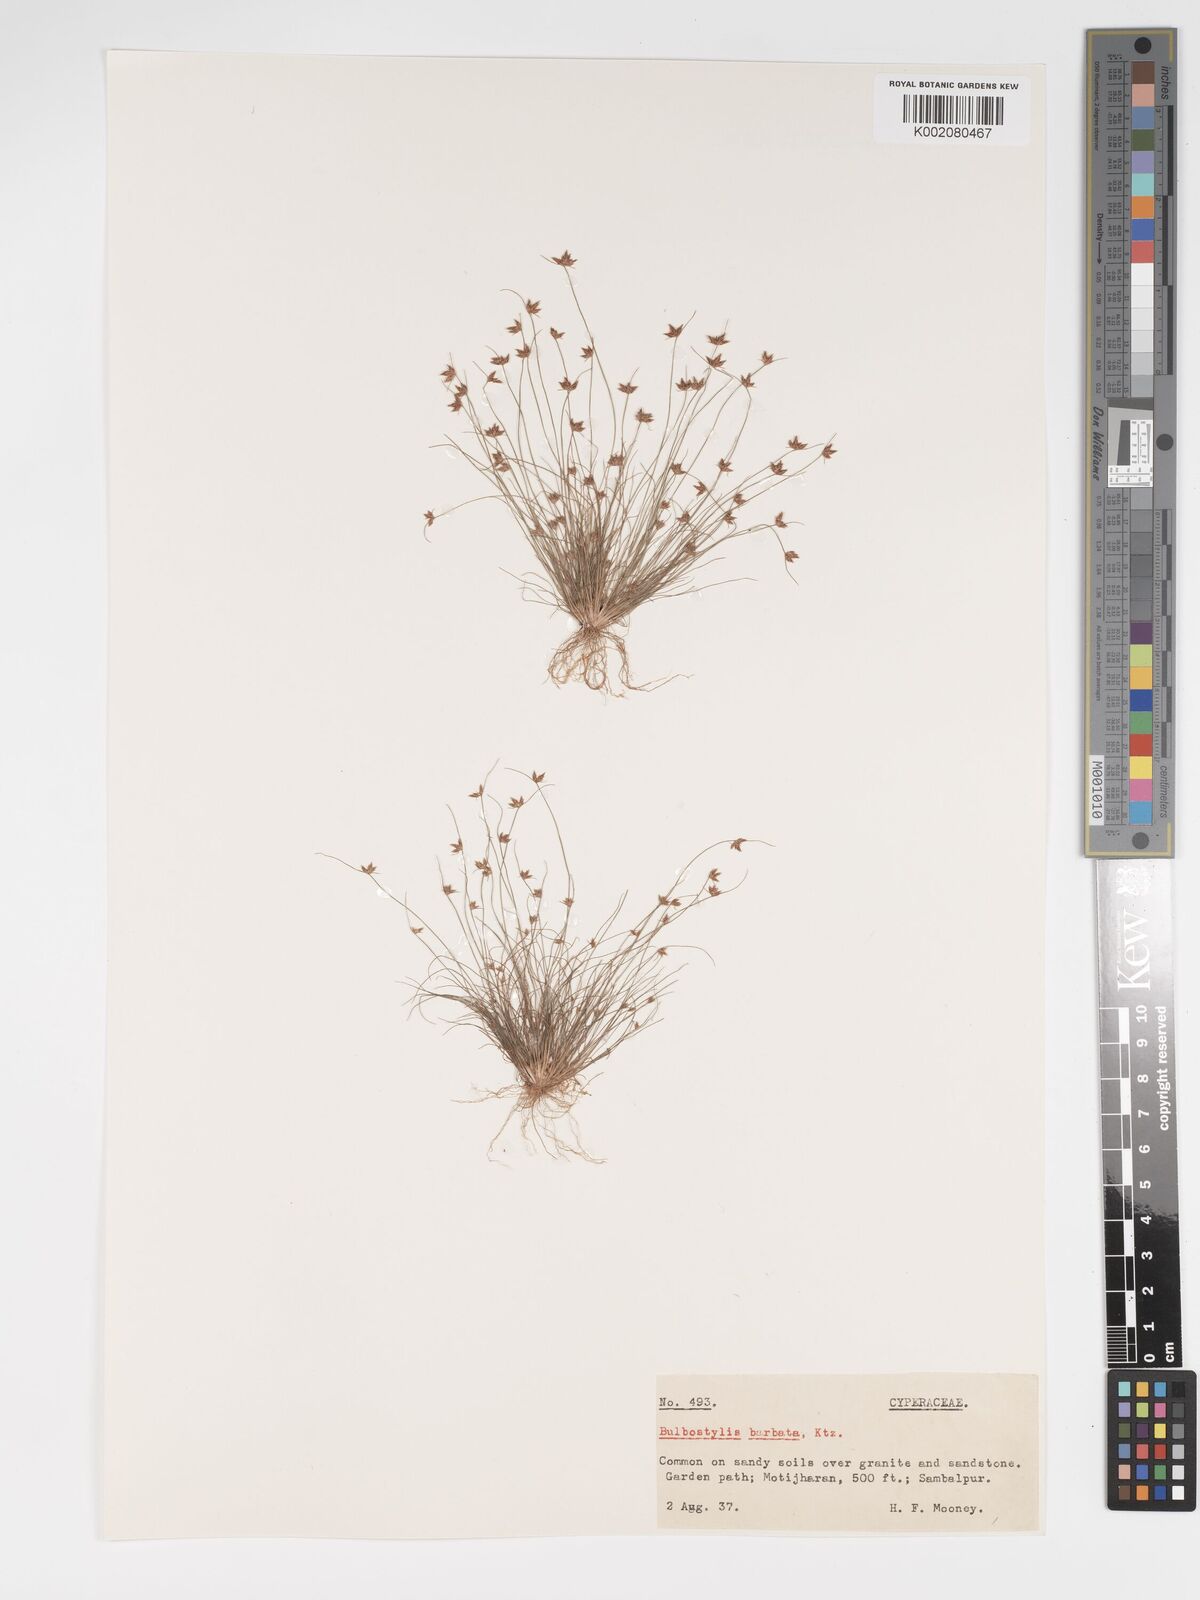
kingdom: Plantae
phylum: Tracheophyta
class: Liliopsida
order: Poales
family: Cyperaceae
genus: Bulbostylis
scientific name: Bulbostylis barbata
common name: Watergrass
